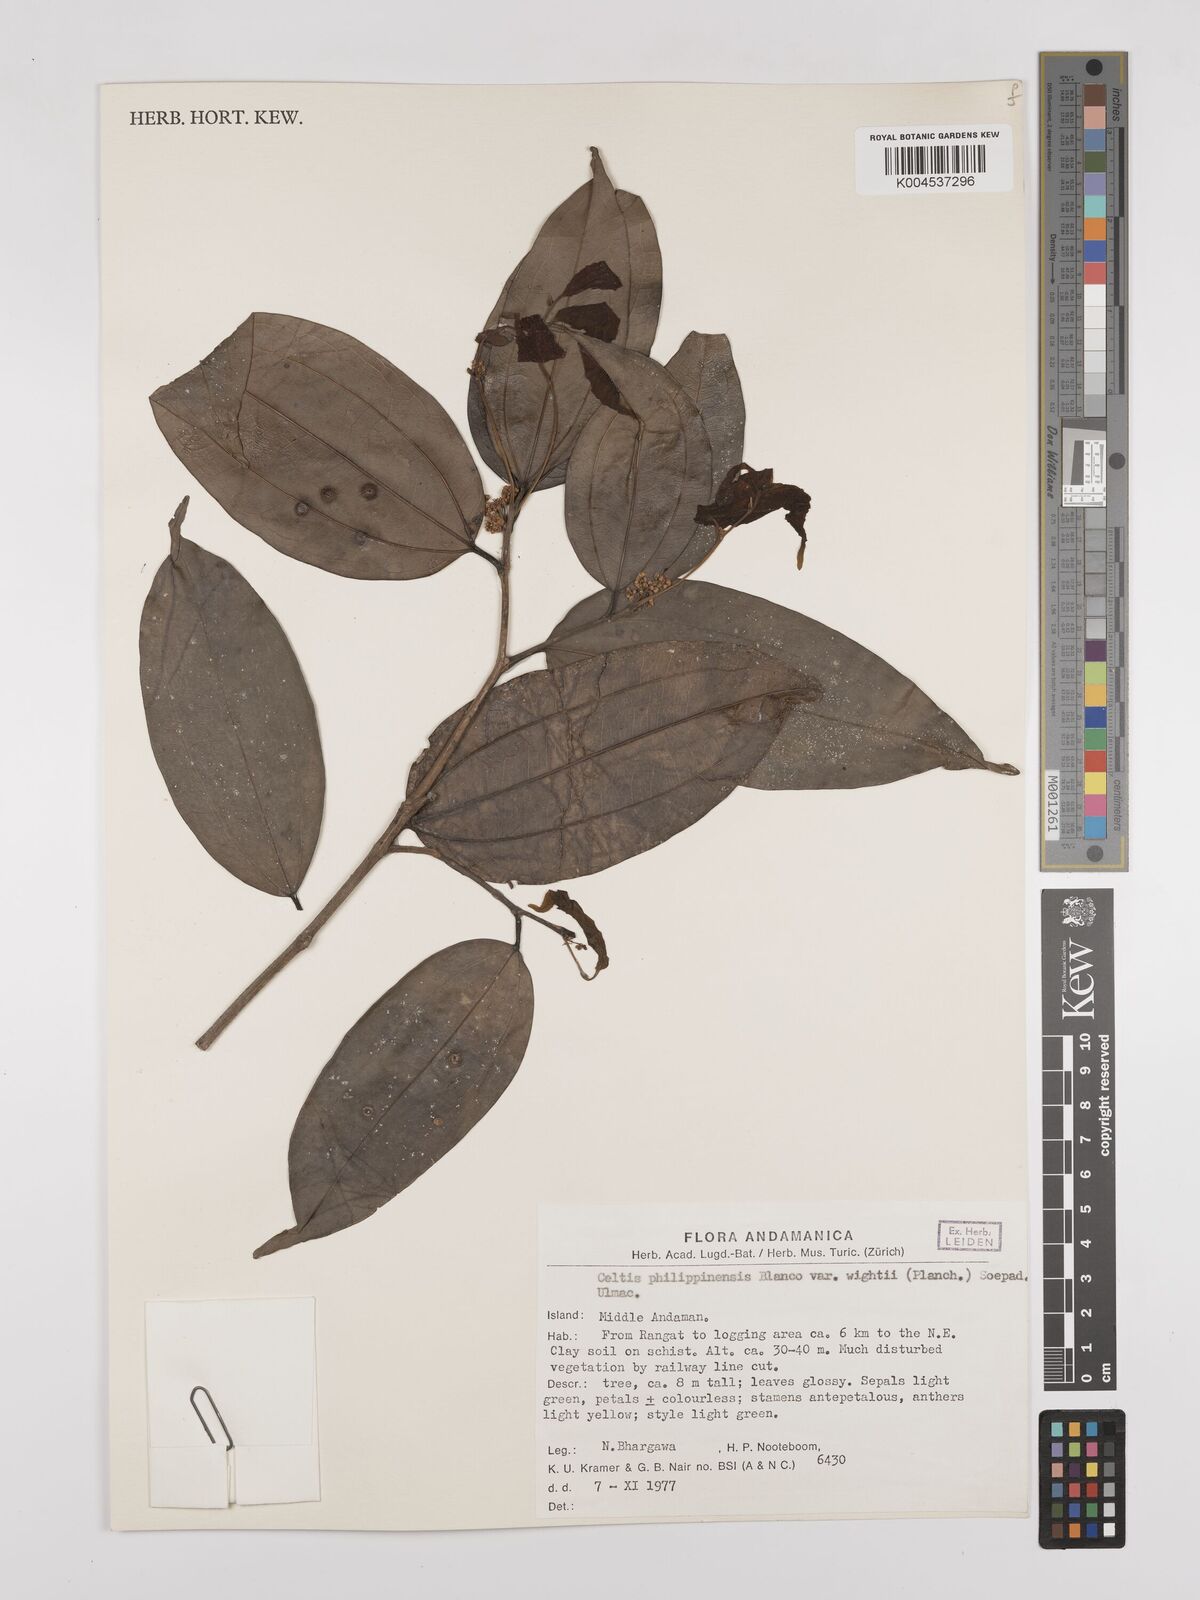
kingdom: Plantae
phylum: Tracheophyta
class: Magnoliopsida
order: Rosales
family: Cannabaceae
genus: Celtis
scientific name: Celtis philippensis
